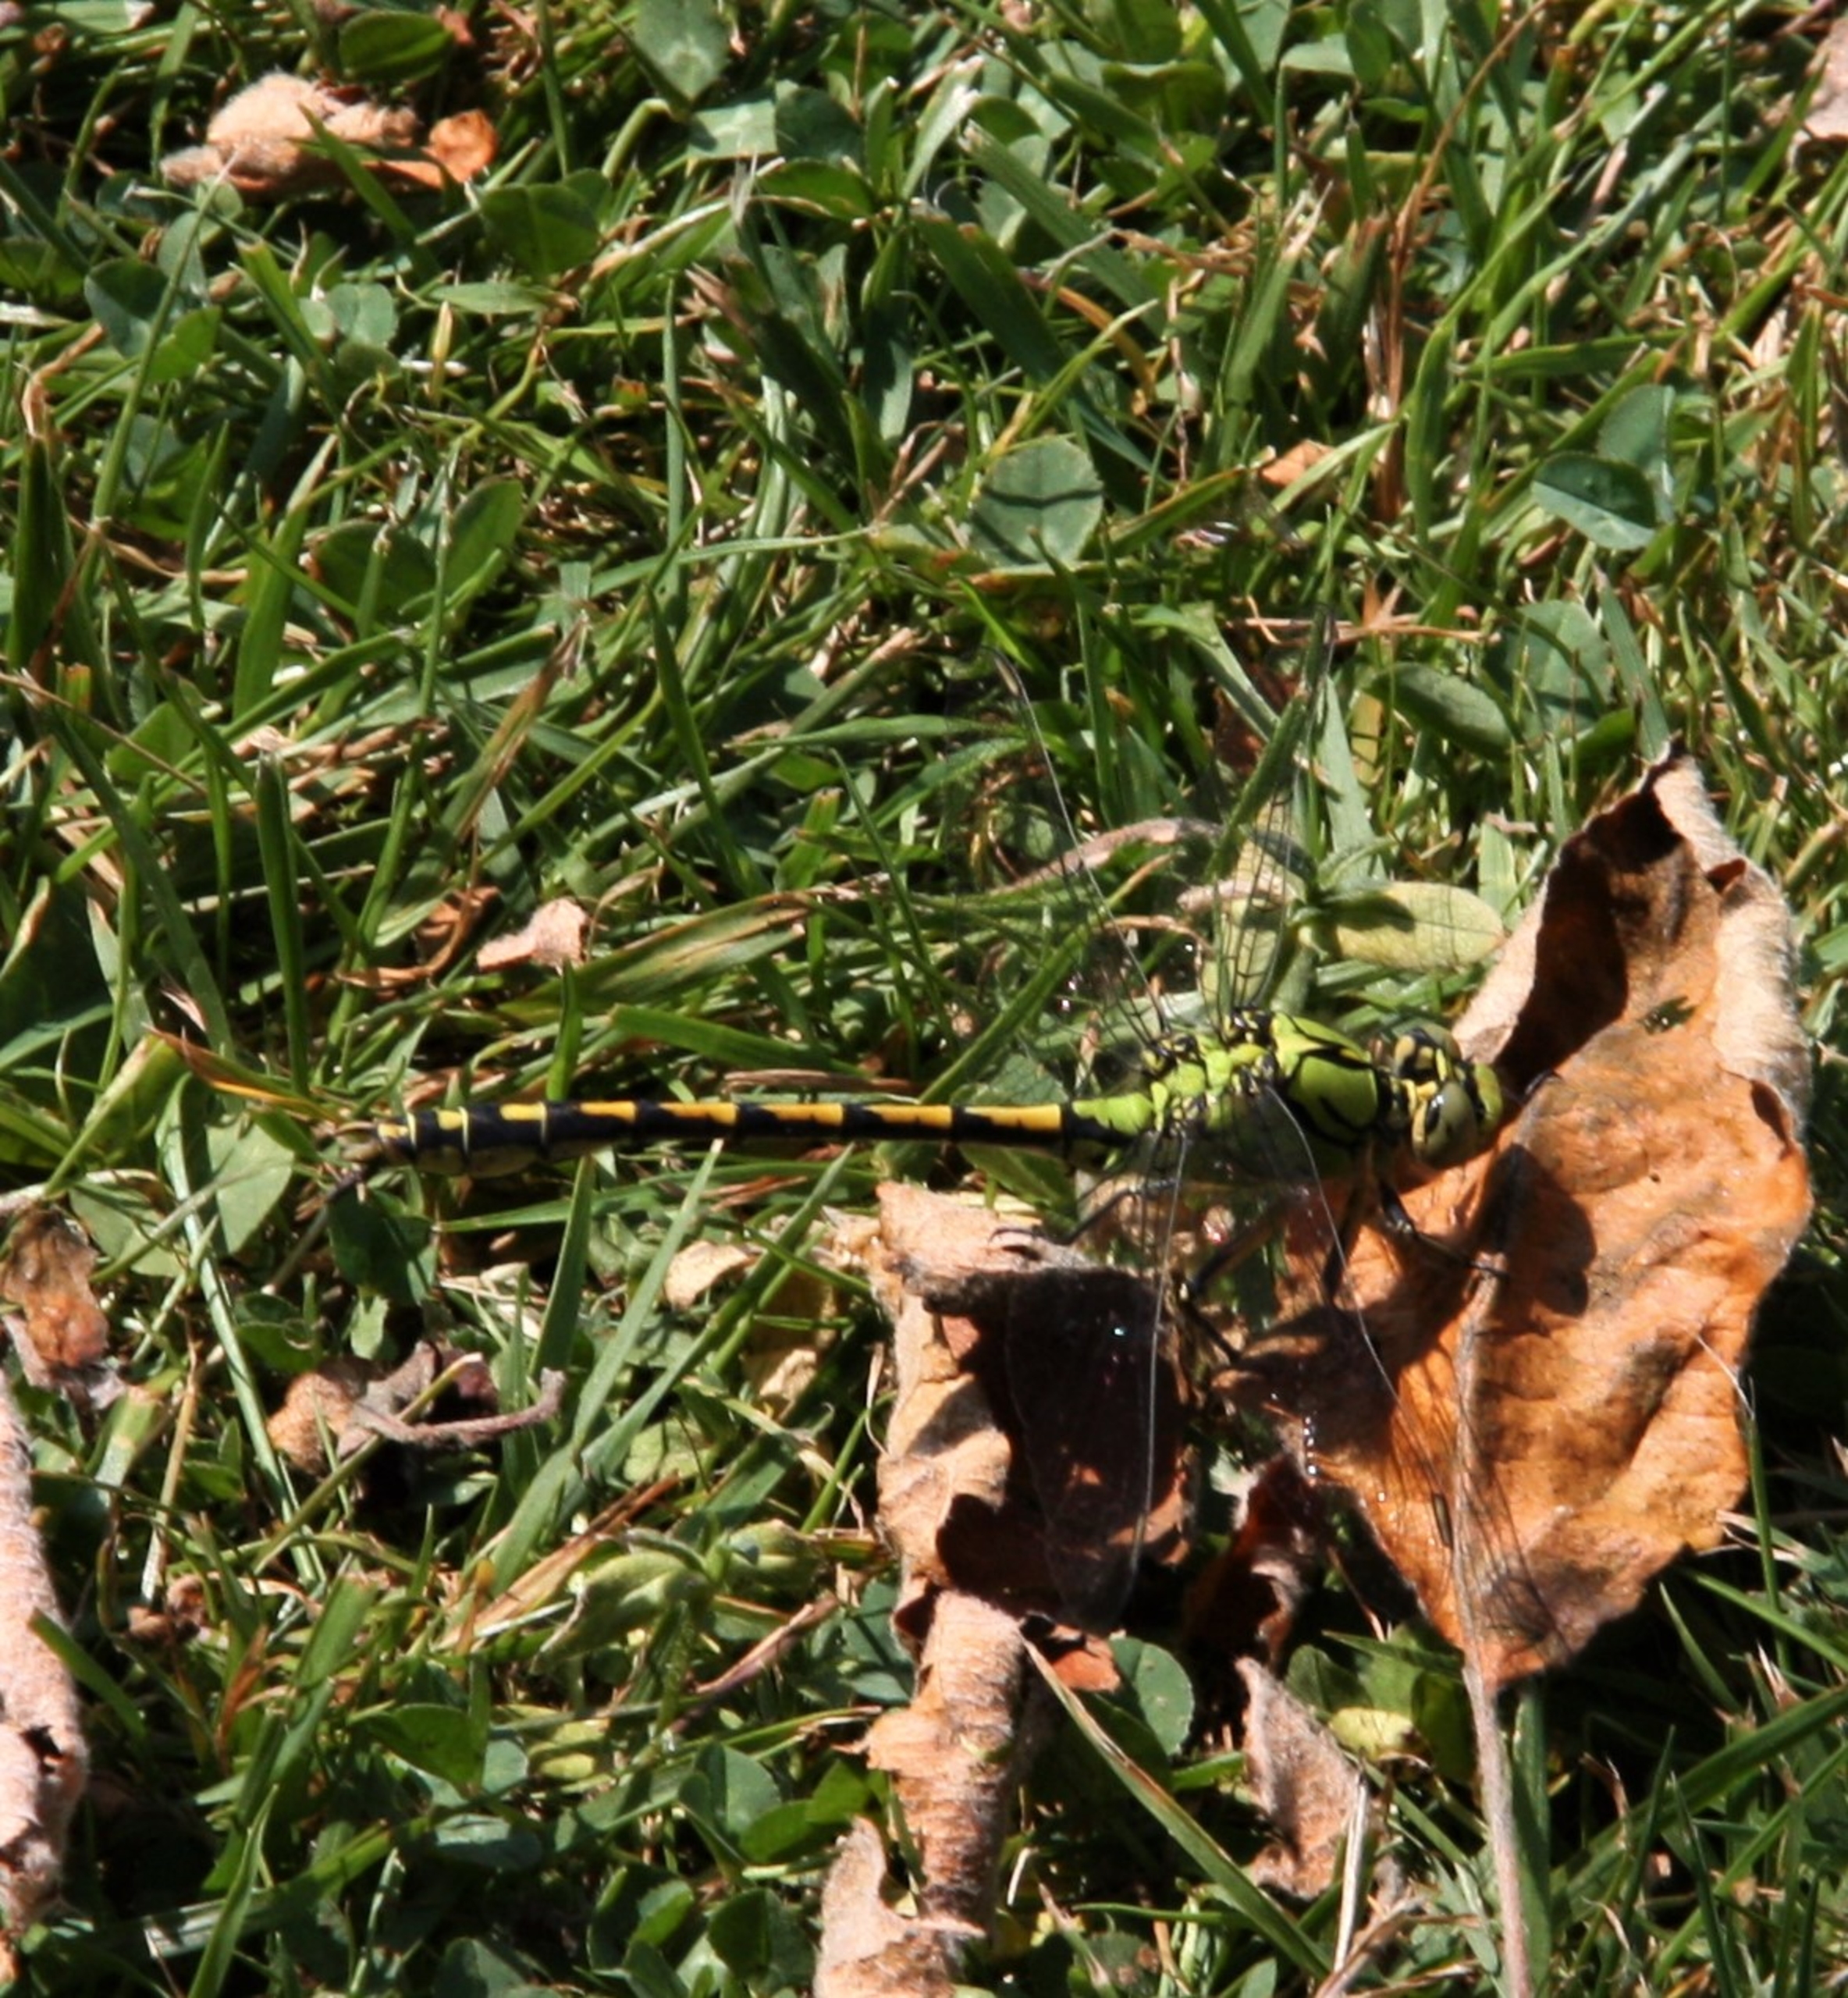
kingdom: Animalia
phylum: Arthropoda
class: Insecta
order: Odonata
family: Gomphidae
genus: Ophiogomphus
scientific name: Ophiogomphus cecilia
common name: Grøn kølleguldsmed
